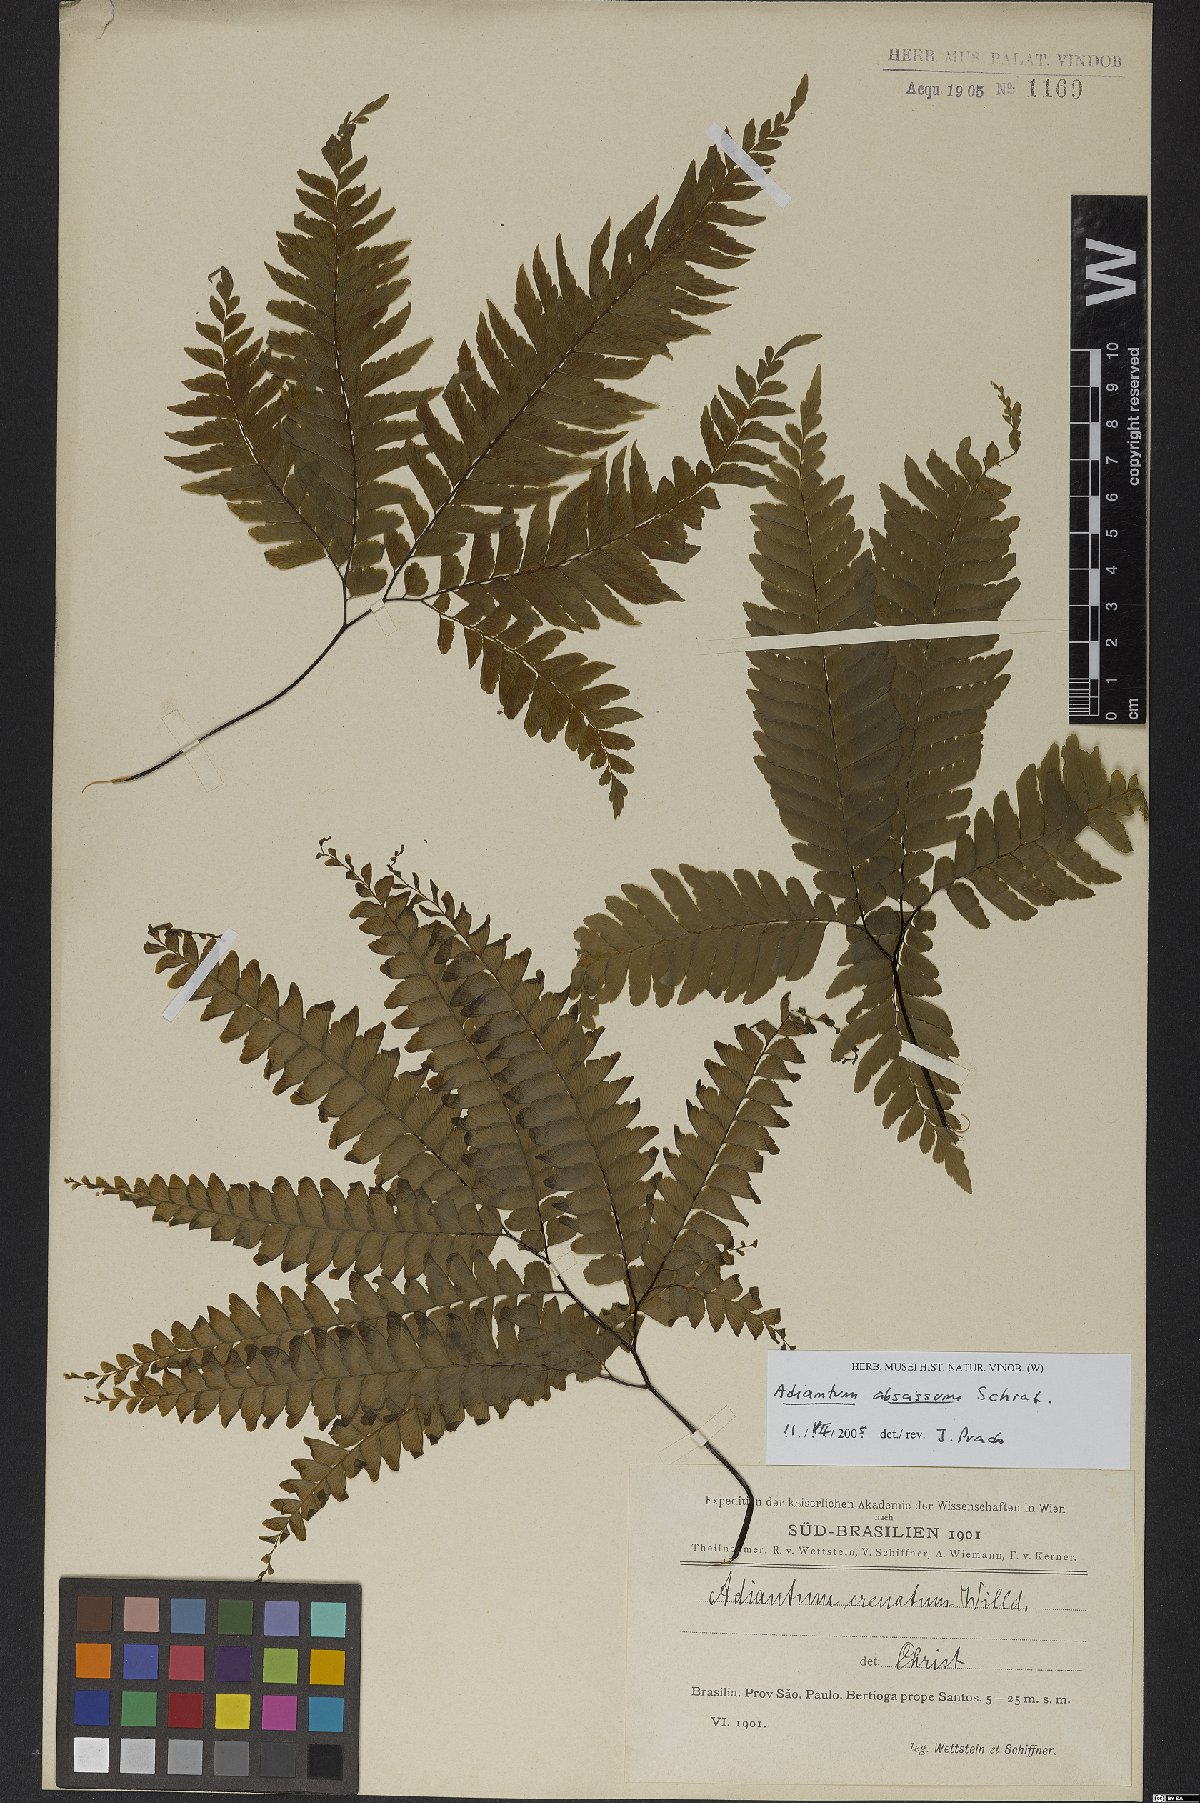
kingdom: Plantae
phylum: Tracheophyta
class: Polypodiopsida
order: Polypodiales
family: Pteridaceae
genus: Adiantum
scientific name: Adiantum abscissum
